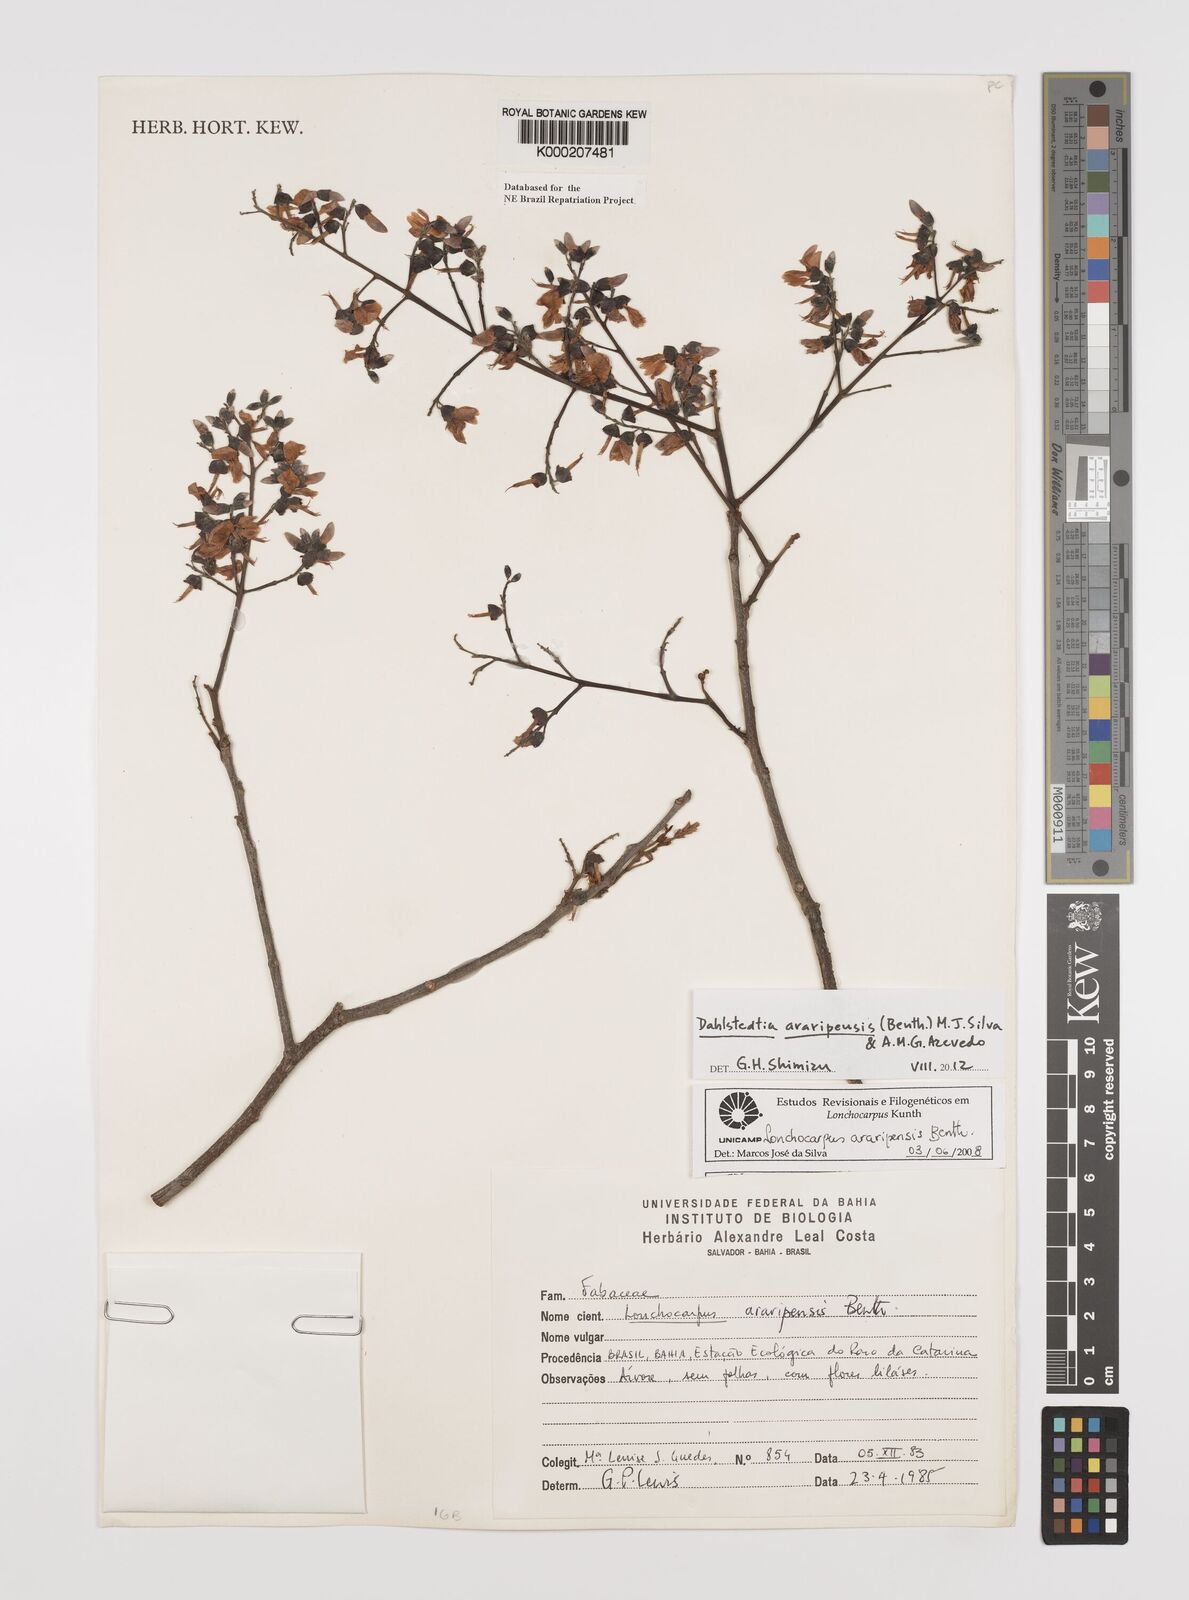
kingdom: Plantae
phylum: Tracheophyta
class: Magnoliopsida
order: Fabales
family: Fabaceae
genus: Dahlstedtia
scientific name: Dahlstedtia araripensis
